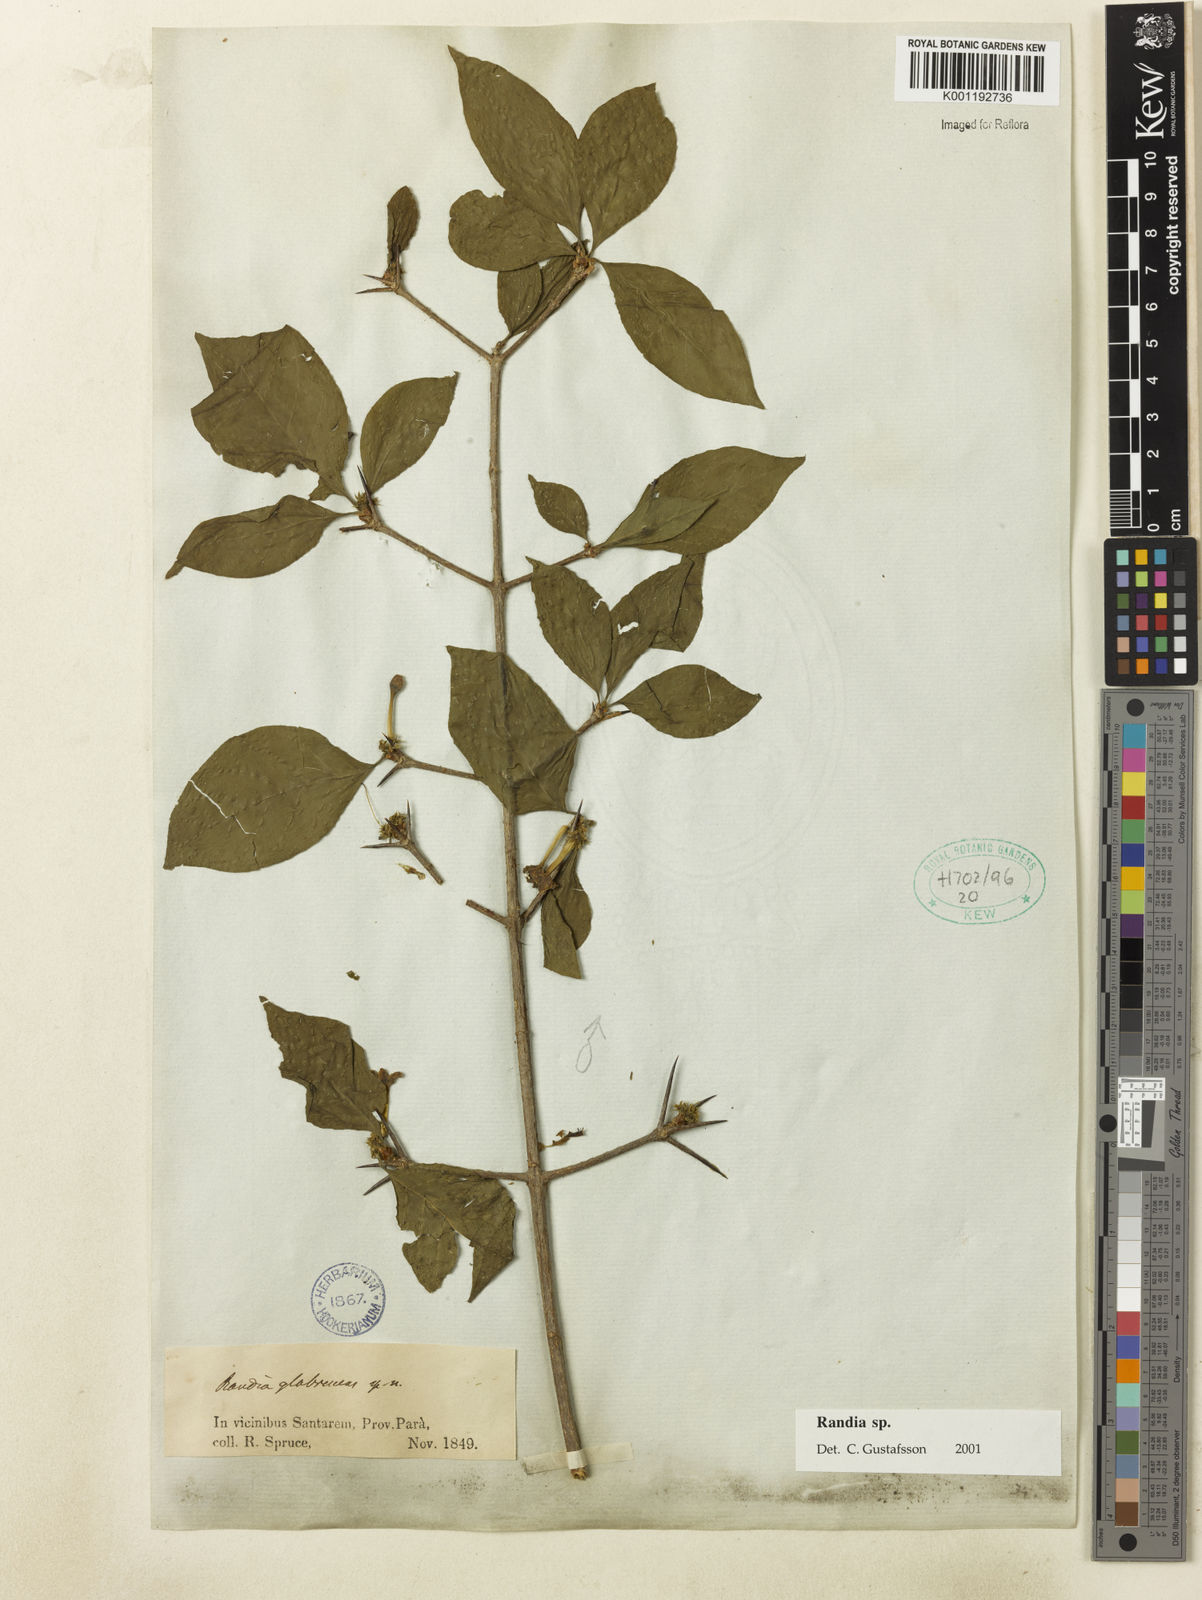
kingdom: Plantae
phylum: Tracheophyta
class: Magnoliopsida
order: Gentianales
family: Rubiaceae
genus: Randia
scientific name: Randia
